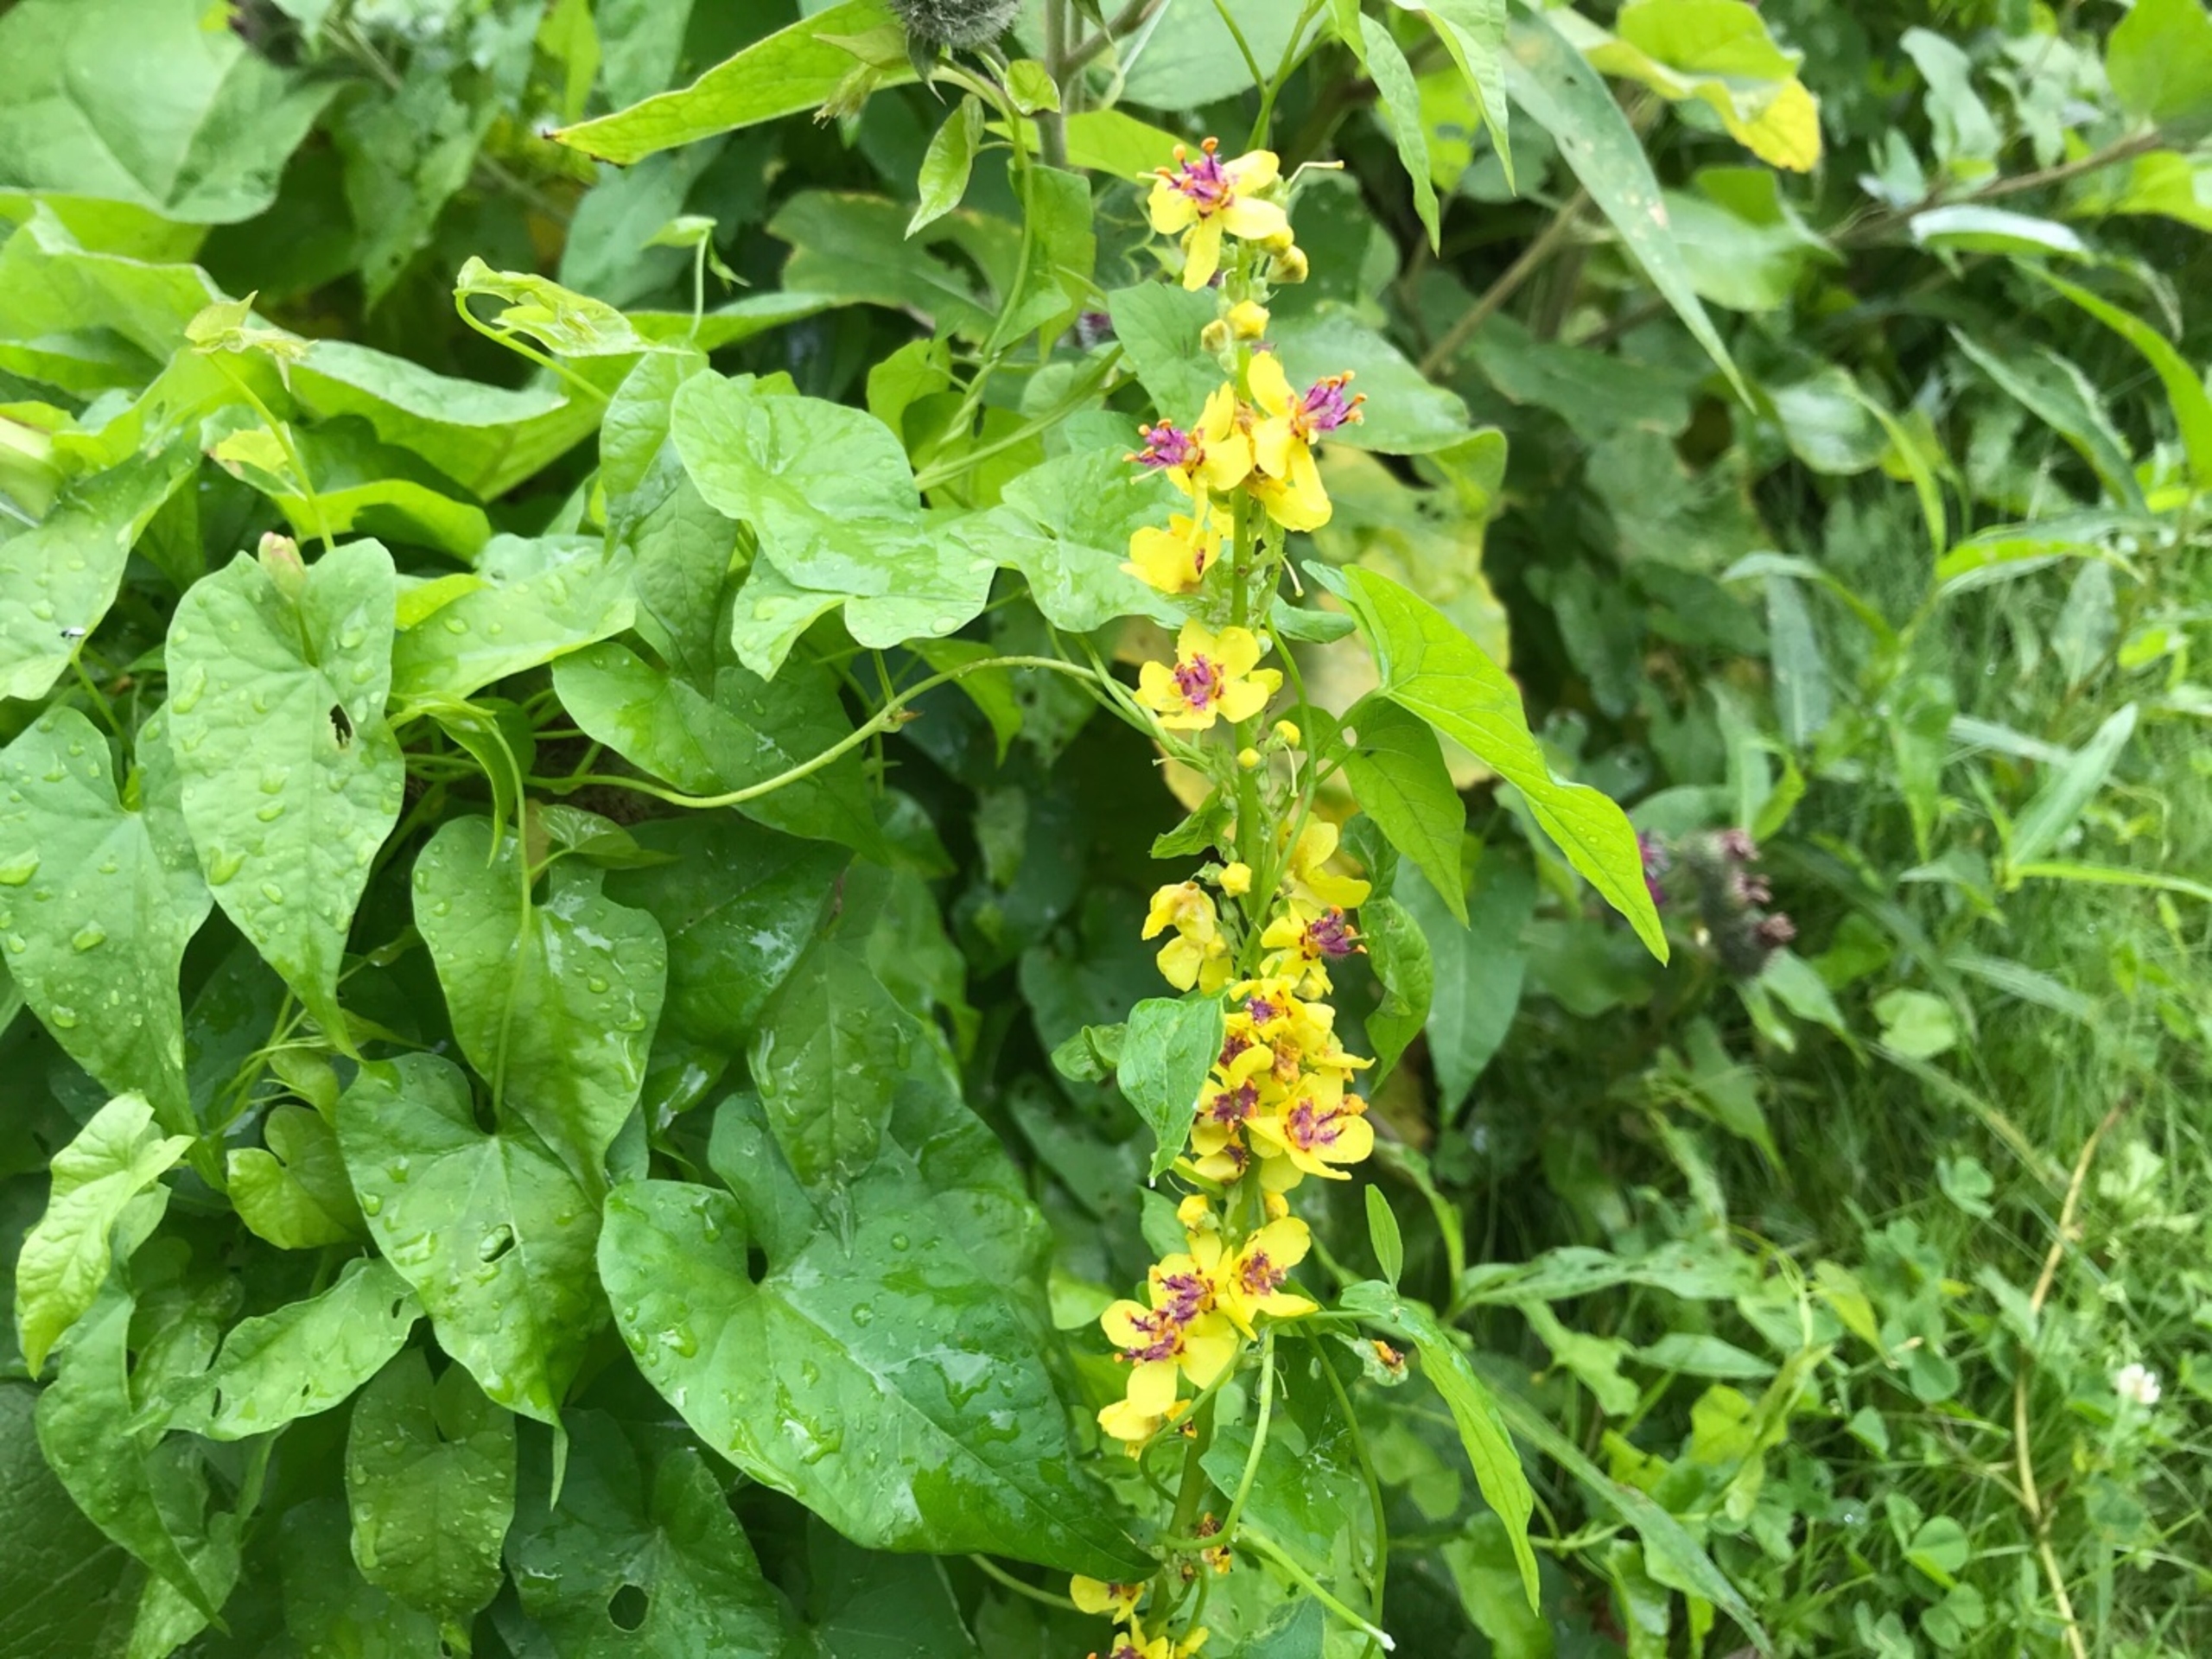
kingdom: Plantae
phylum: Tracheophyta
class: Magnoliopsida
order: Lamiales
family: Scrophulariaceae
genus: Verbascum
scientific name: Verbascum nigrum
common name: Mørk kongelys
